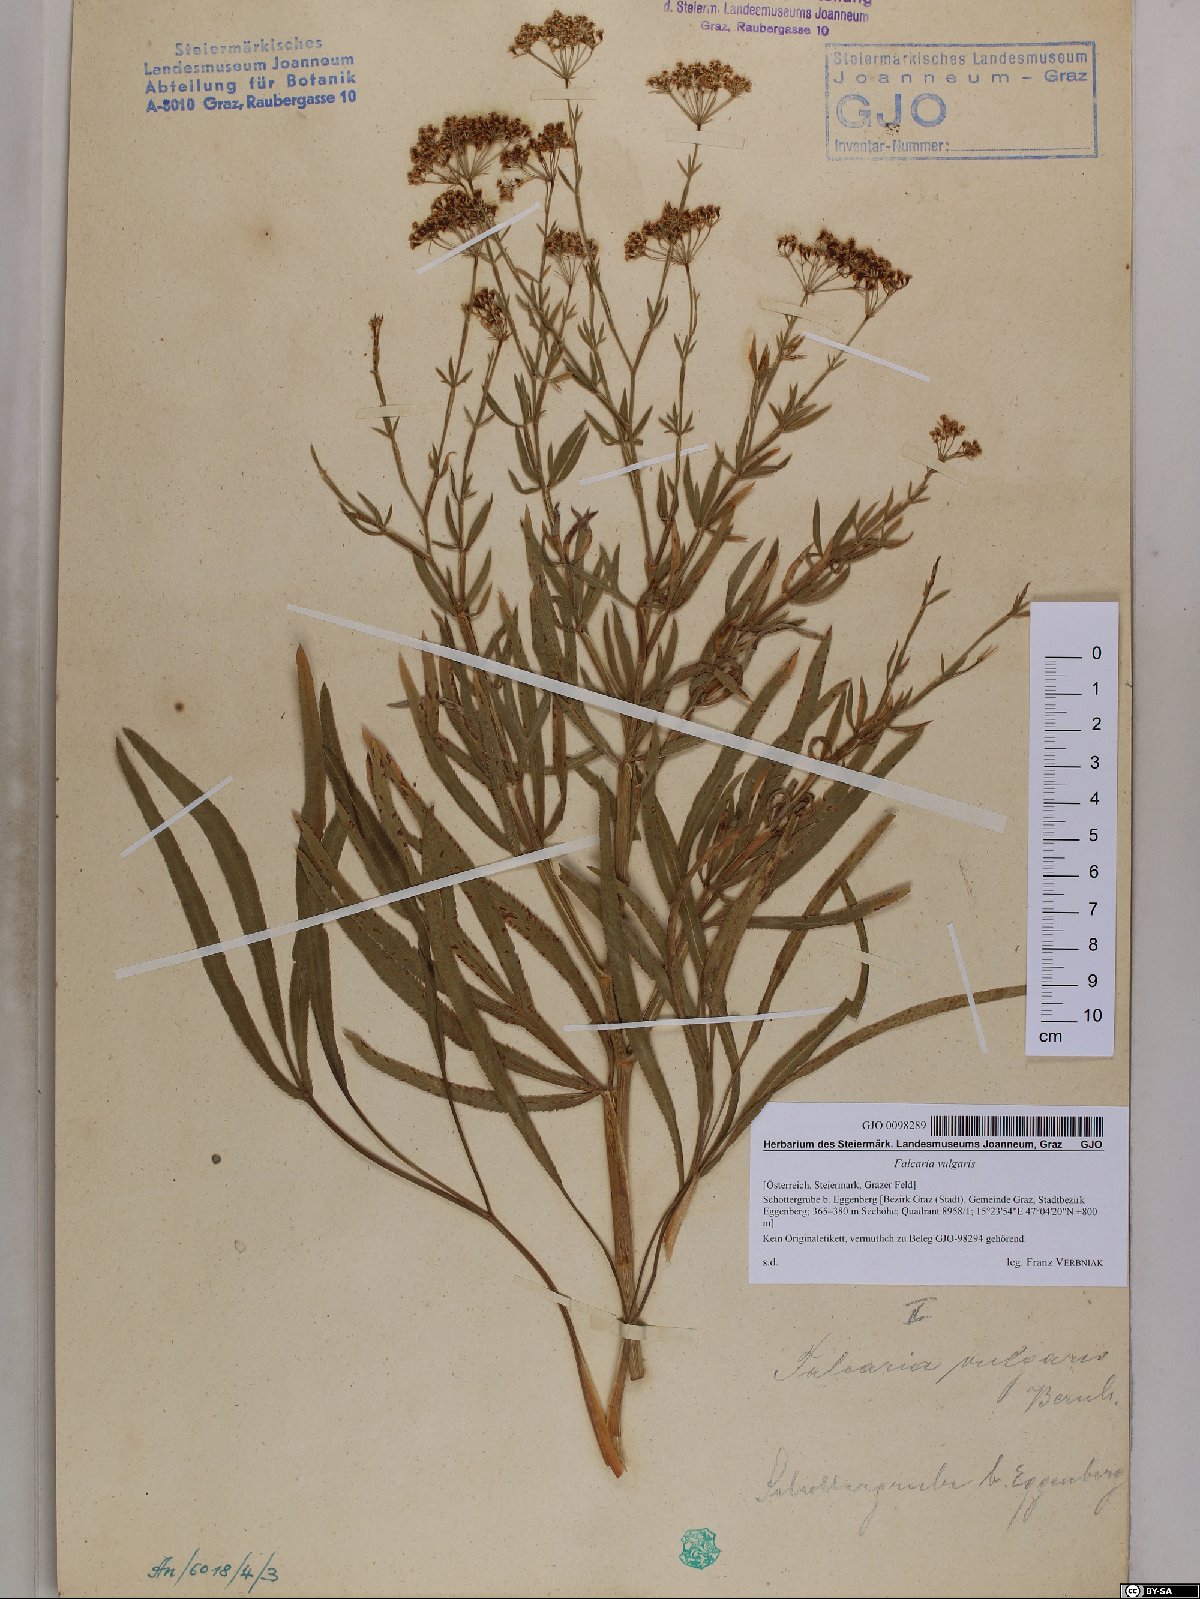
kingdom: Plantae
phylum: Tracheophyta
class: Magnoliopsida
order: Apiales
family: Apiaceae
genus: Falcaria
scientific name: Falcaria vulgaris
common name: Longleaf
